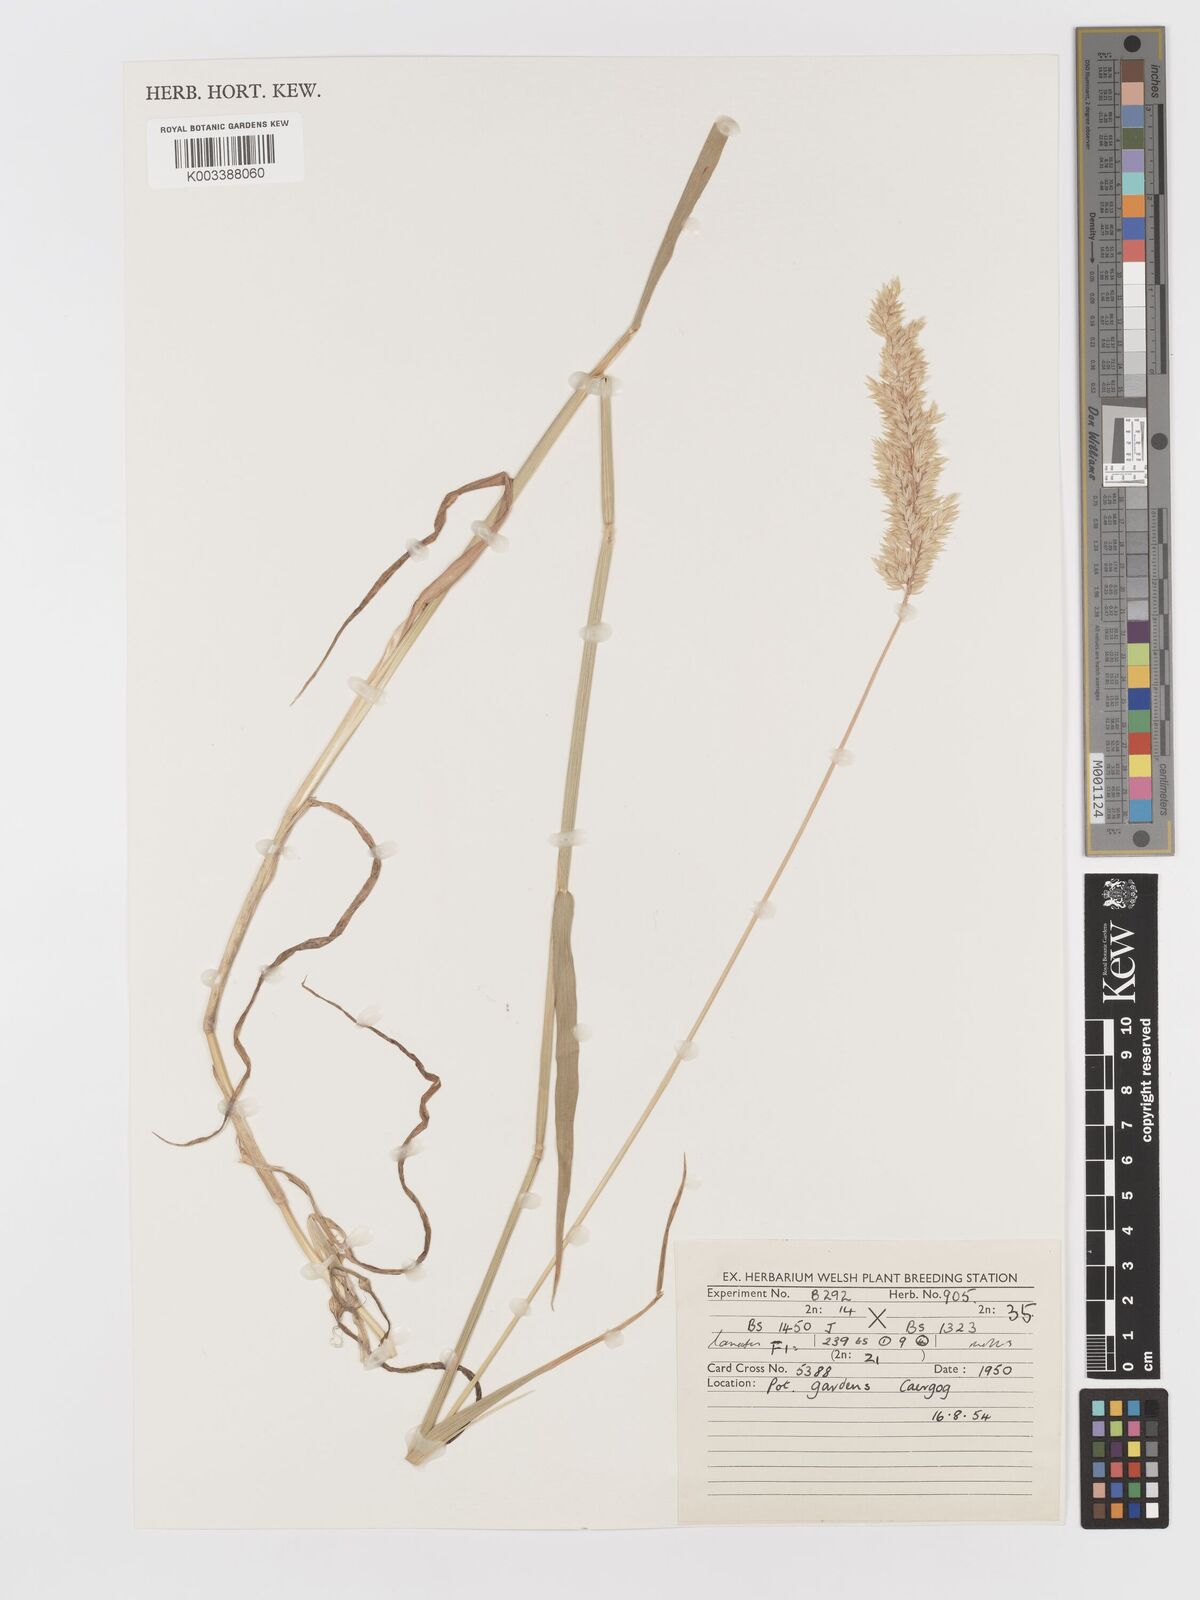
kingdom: Plantae
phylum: Tracheophyta
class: Liliopsida
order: Poales
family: Poaceae
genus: Holcus
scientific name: Holcus lanatus
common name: Yorkshire-fog
